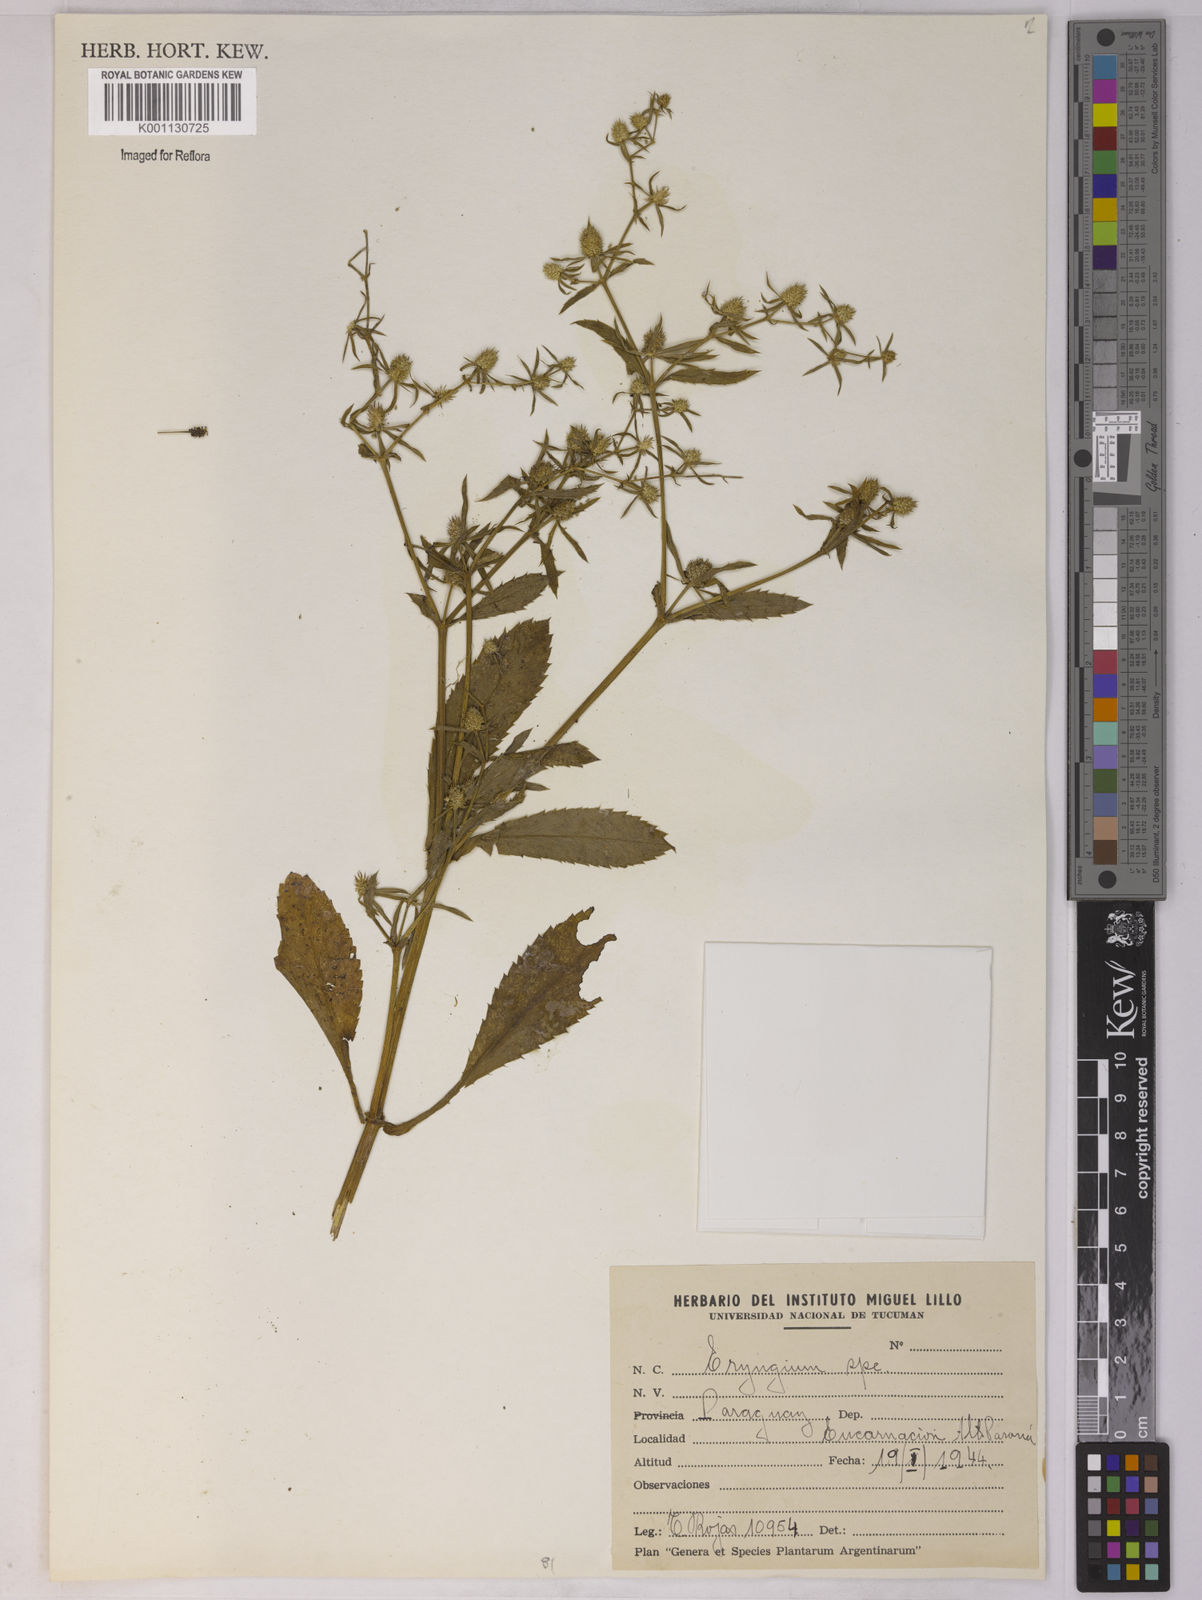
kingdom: Plantae
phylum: Tracheophyta
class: Magnoliopsida
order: Apiales
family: Apiaceae
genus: Eryngium
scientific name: Eryngium
